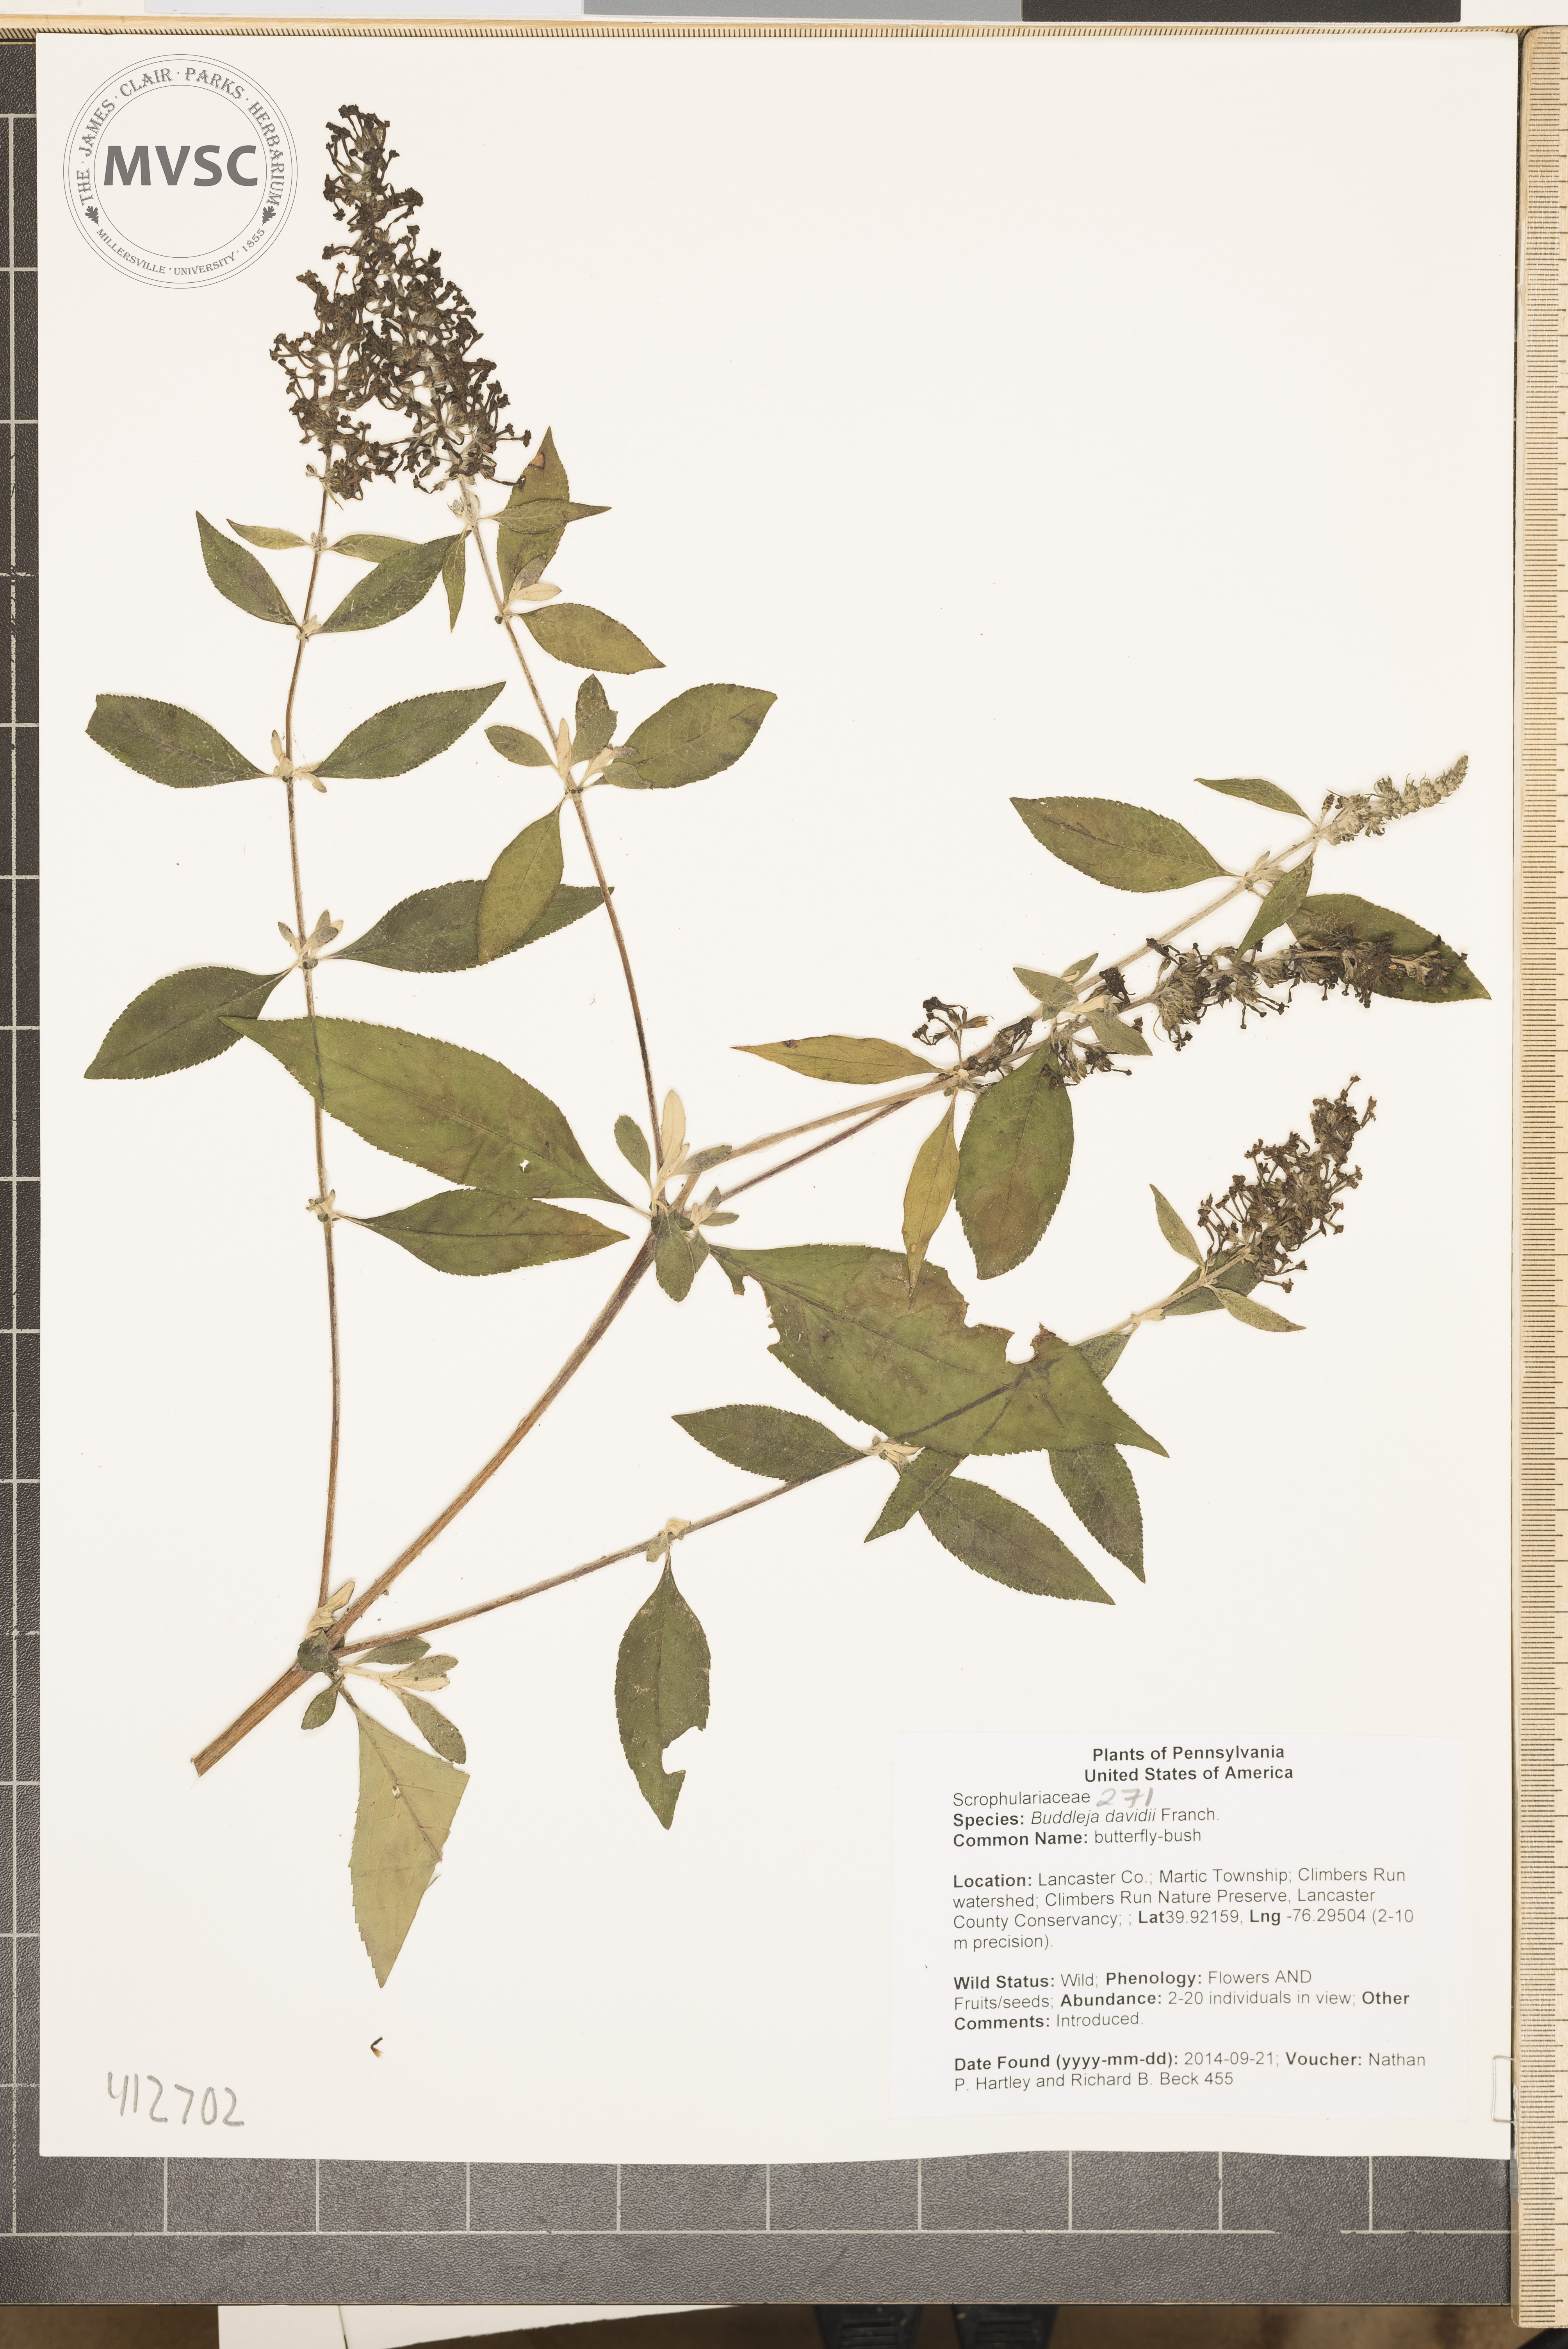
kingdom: Plantae
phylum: Tracheophyta
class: Magnoliopsida
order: Lamiales
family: Scrophulariaceae
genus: Buddleja
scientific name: Buddleja davidii
